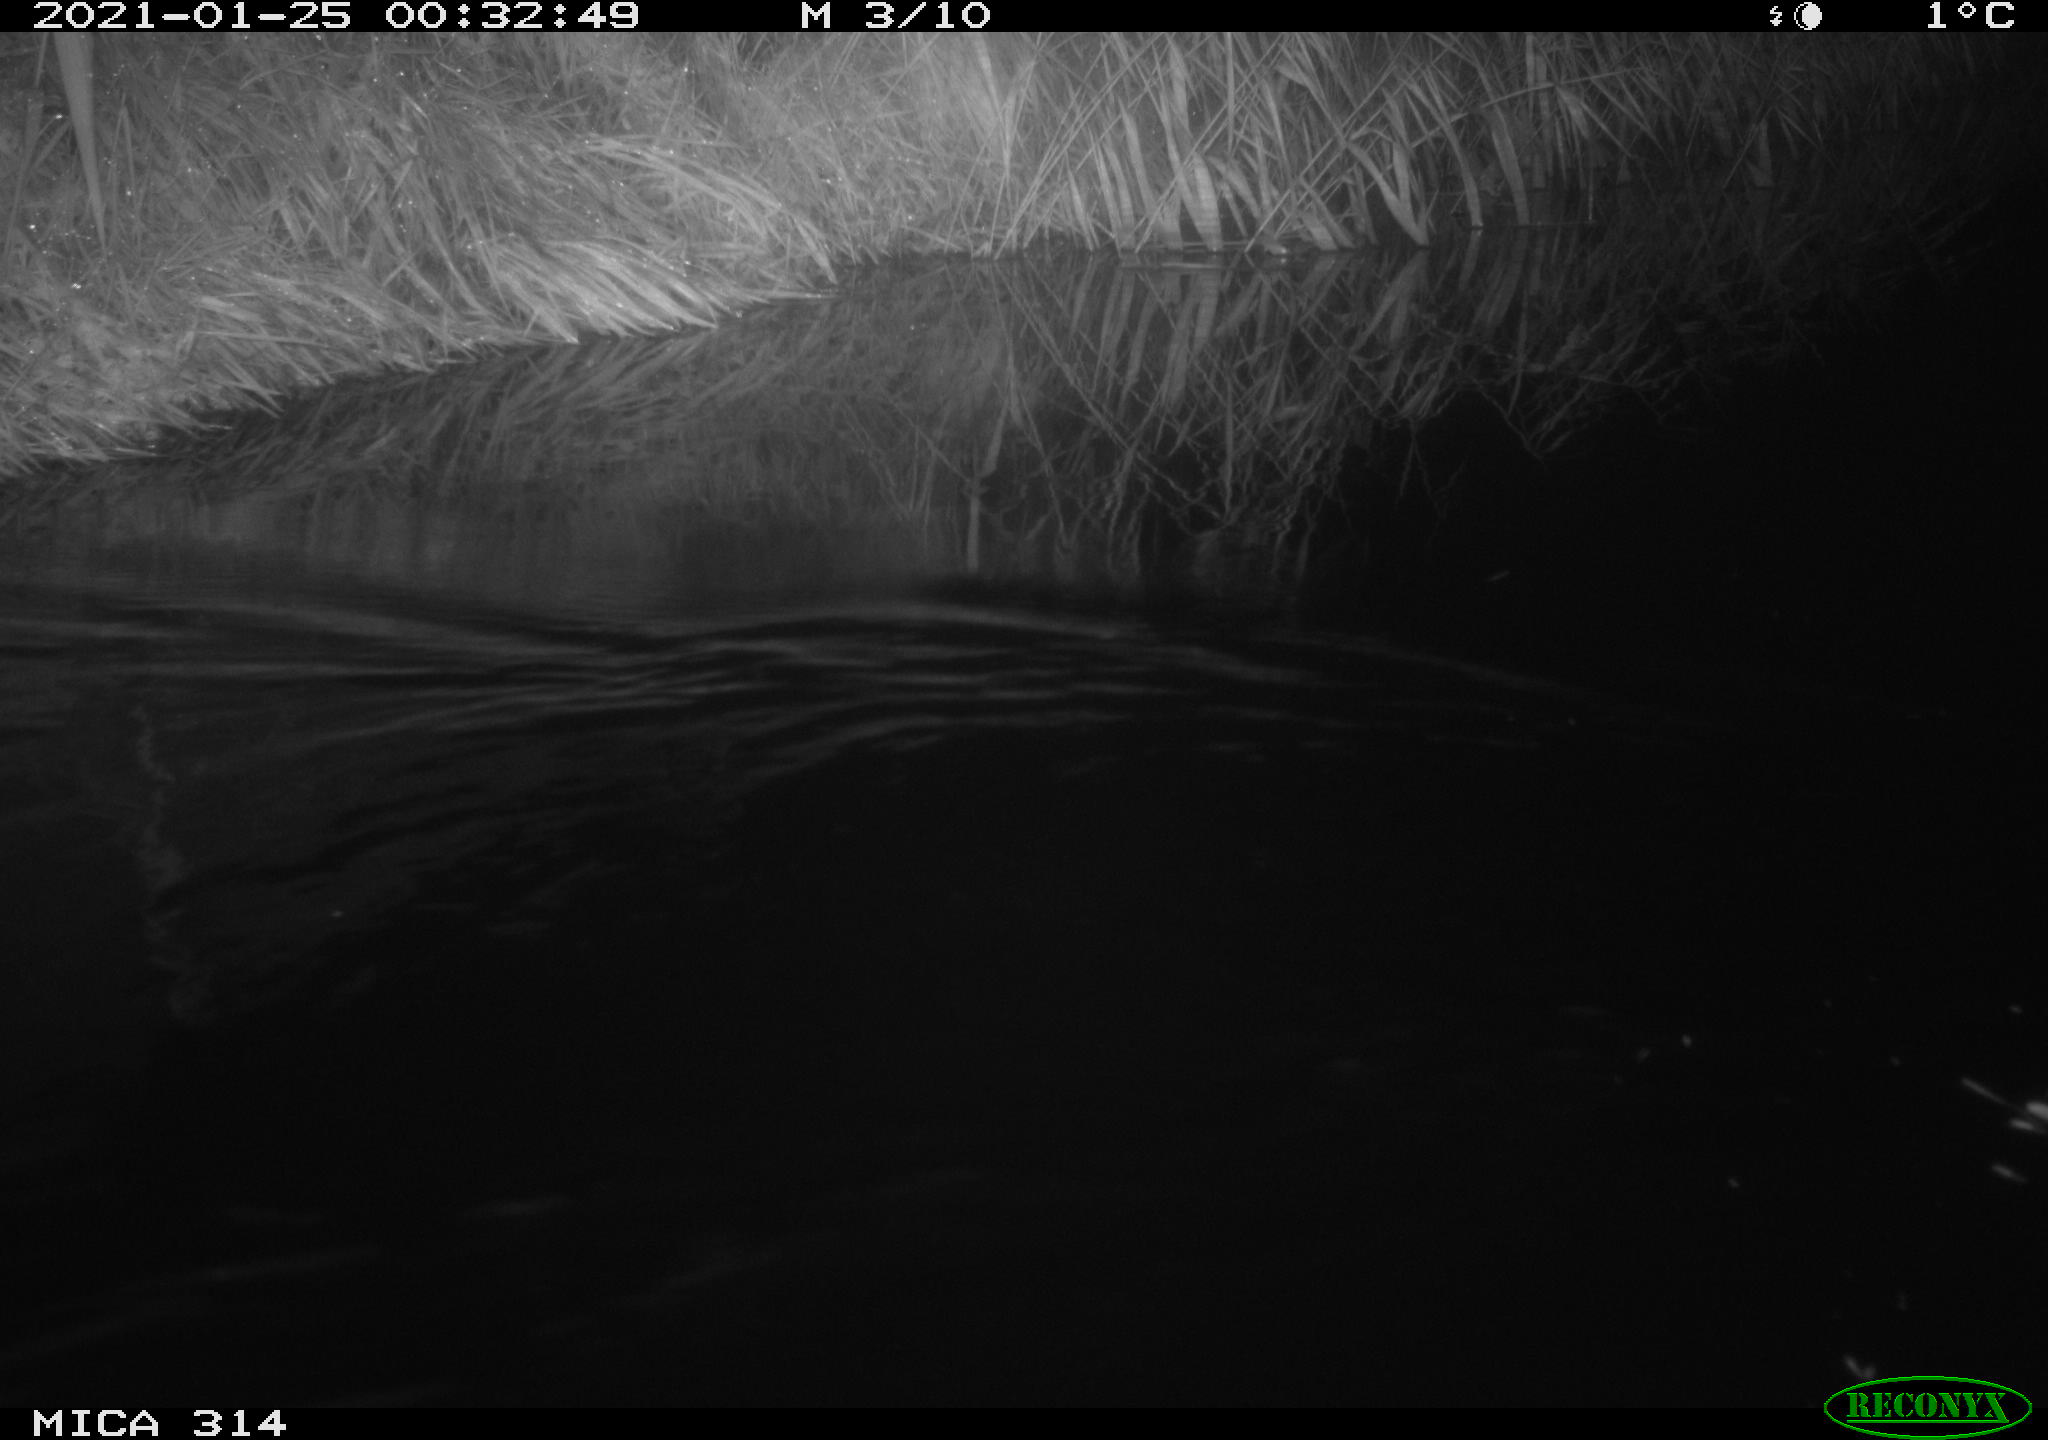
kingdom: Animalia
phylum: Chordata
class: Mammalia
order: Rodentia
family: Muridae
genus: Rattus
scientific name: Rattus norvegicus
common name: Brown rat
